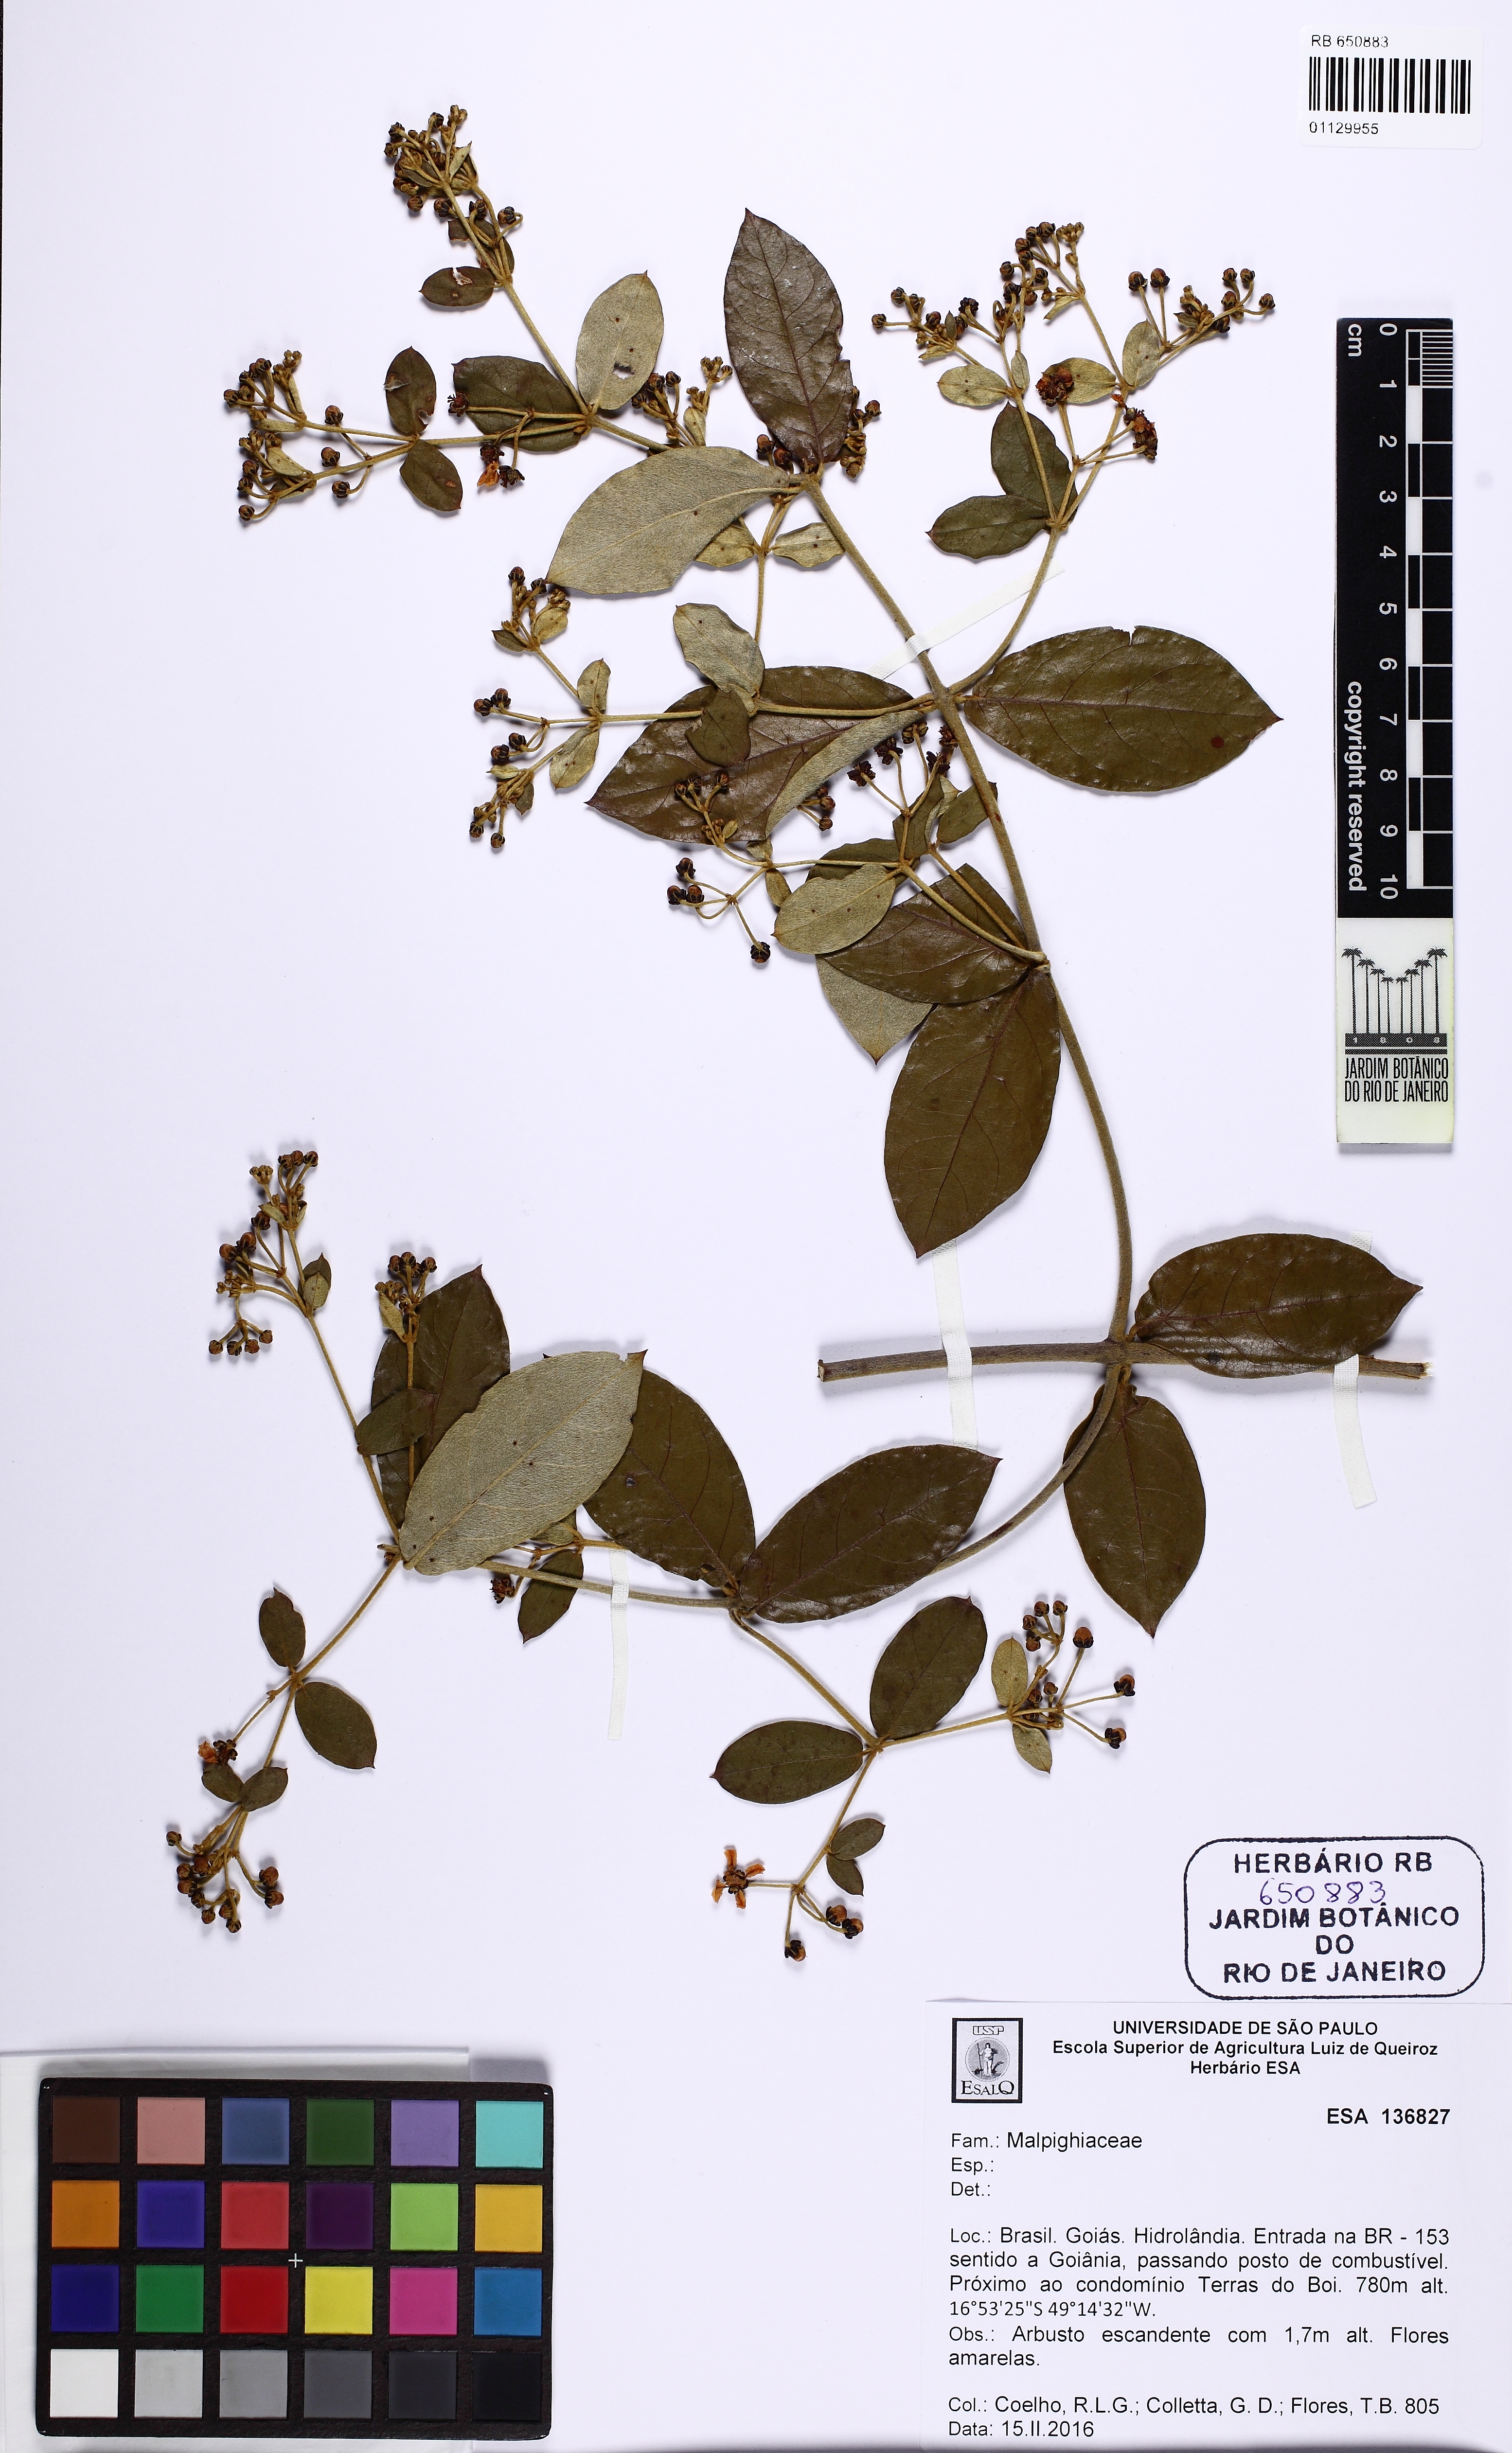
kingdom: Plantae
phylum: Tracheophyta
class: Magnoliopsida
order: Malpighiales
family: Malpighiaceae
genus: Banisteriopsis
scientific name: Banisteriopsis
